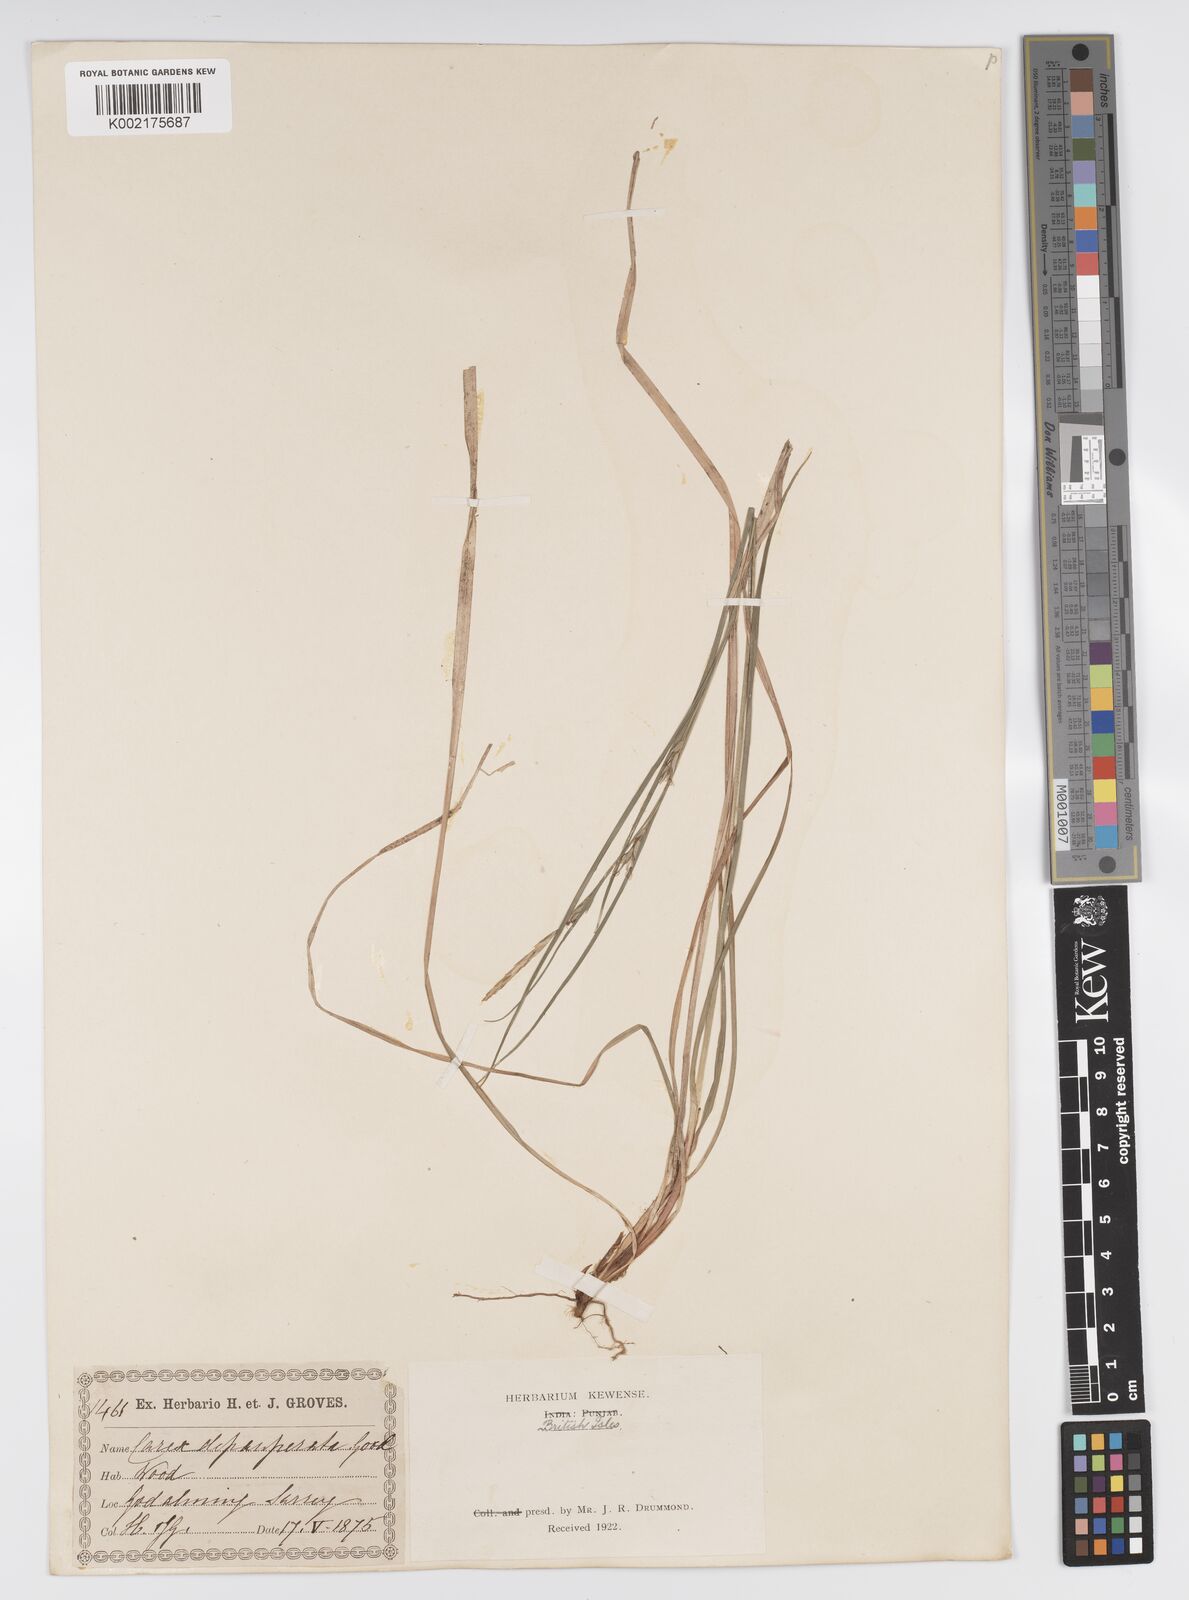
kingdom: Plantae
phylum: Tracheophyta
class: Liliopsida
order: Poales
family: Cyperaceae
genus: Carex
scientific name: Carex vaginata
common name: Sheathed sedge
